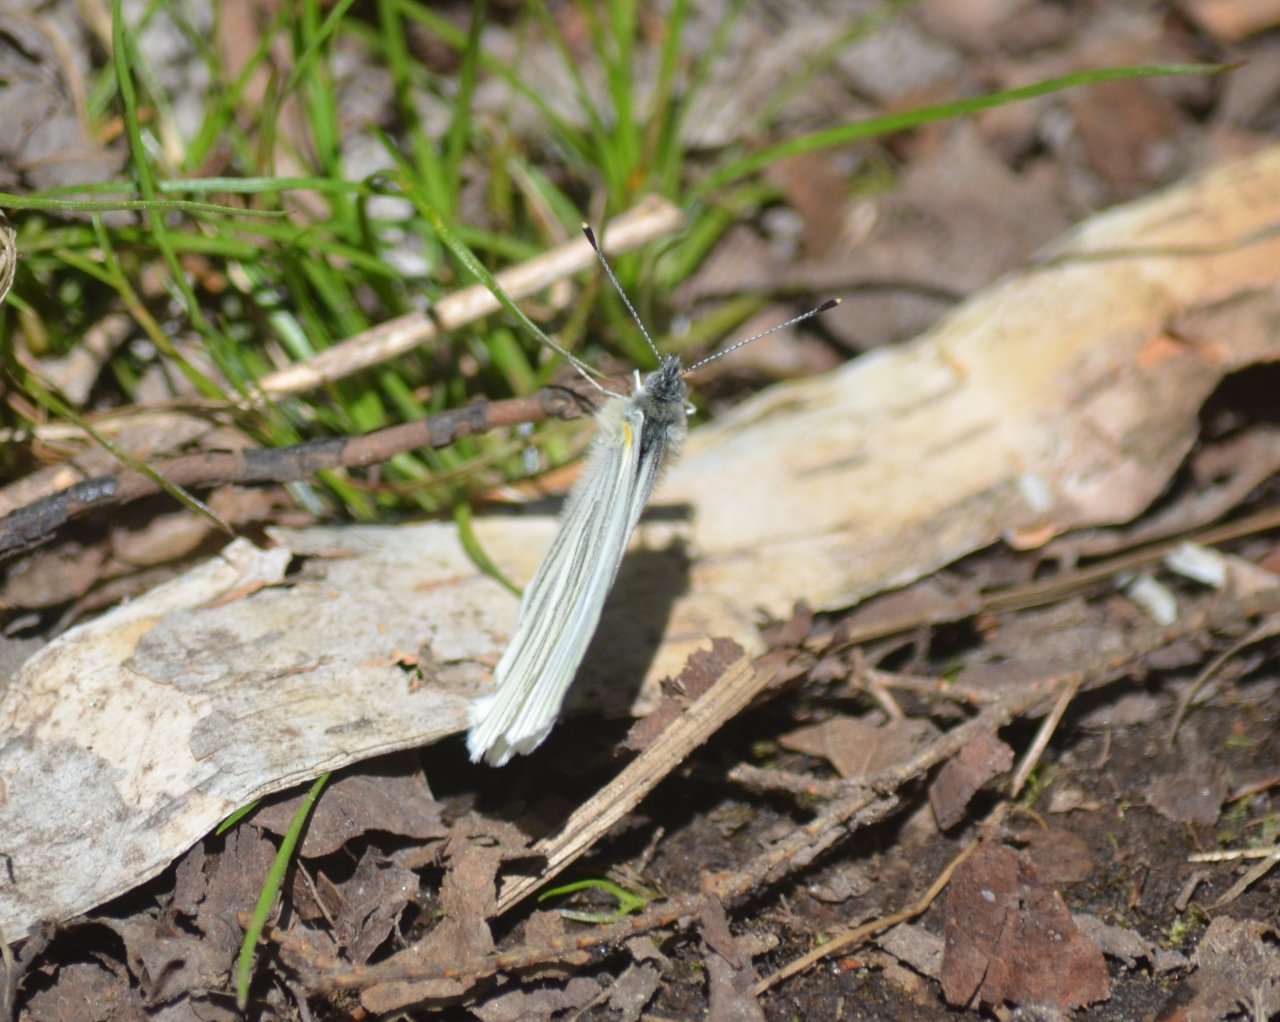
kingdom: Animalia
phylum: Arthropoda
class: Insecta
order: Lepidoptera
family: Pieridae
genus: Pieris
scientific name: Pieris oleracea
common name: Mustard White
